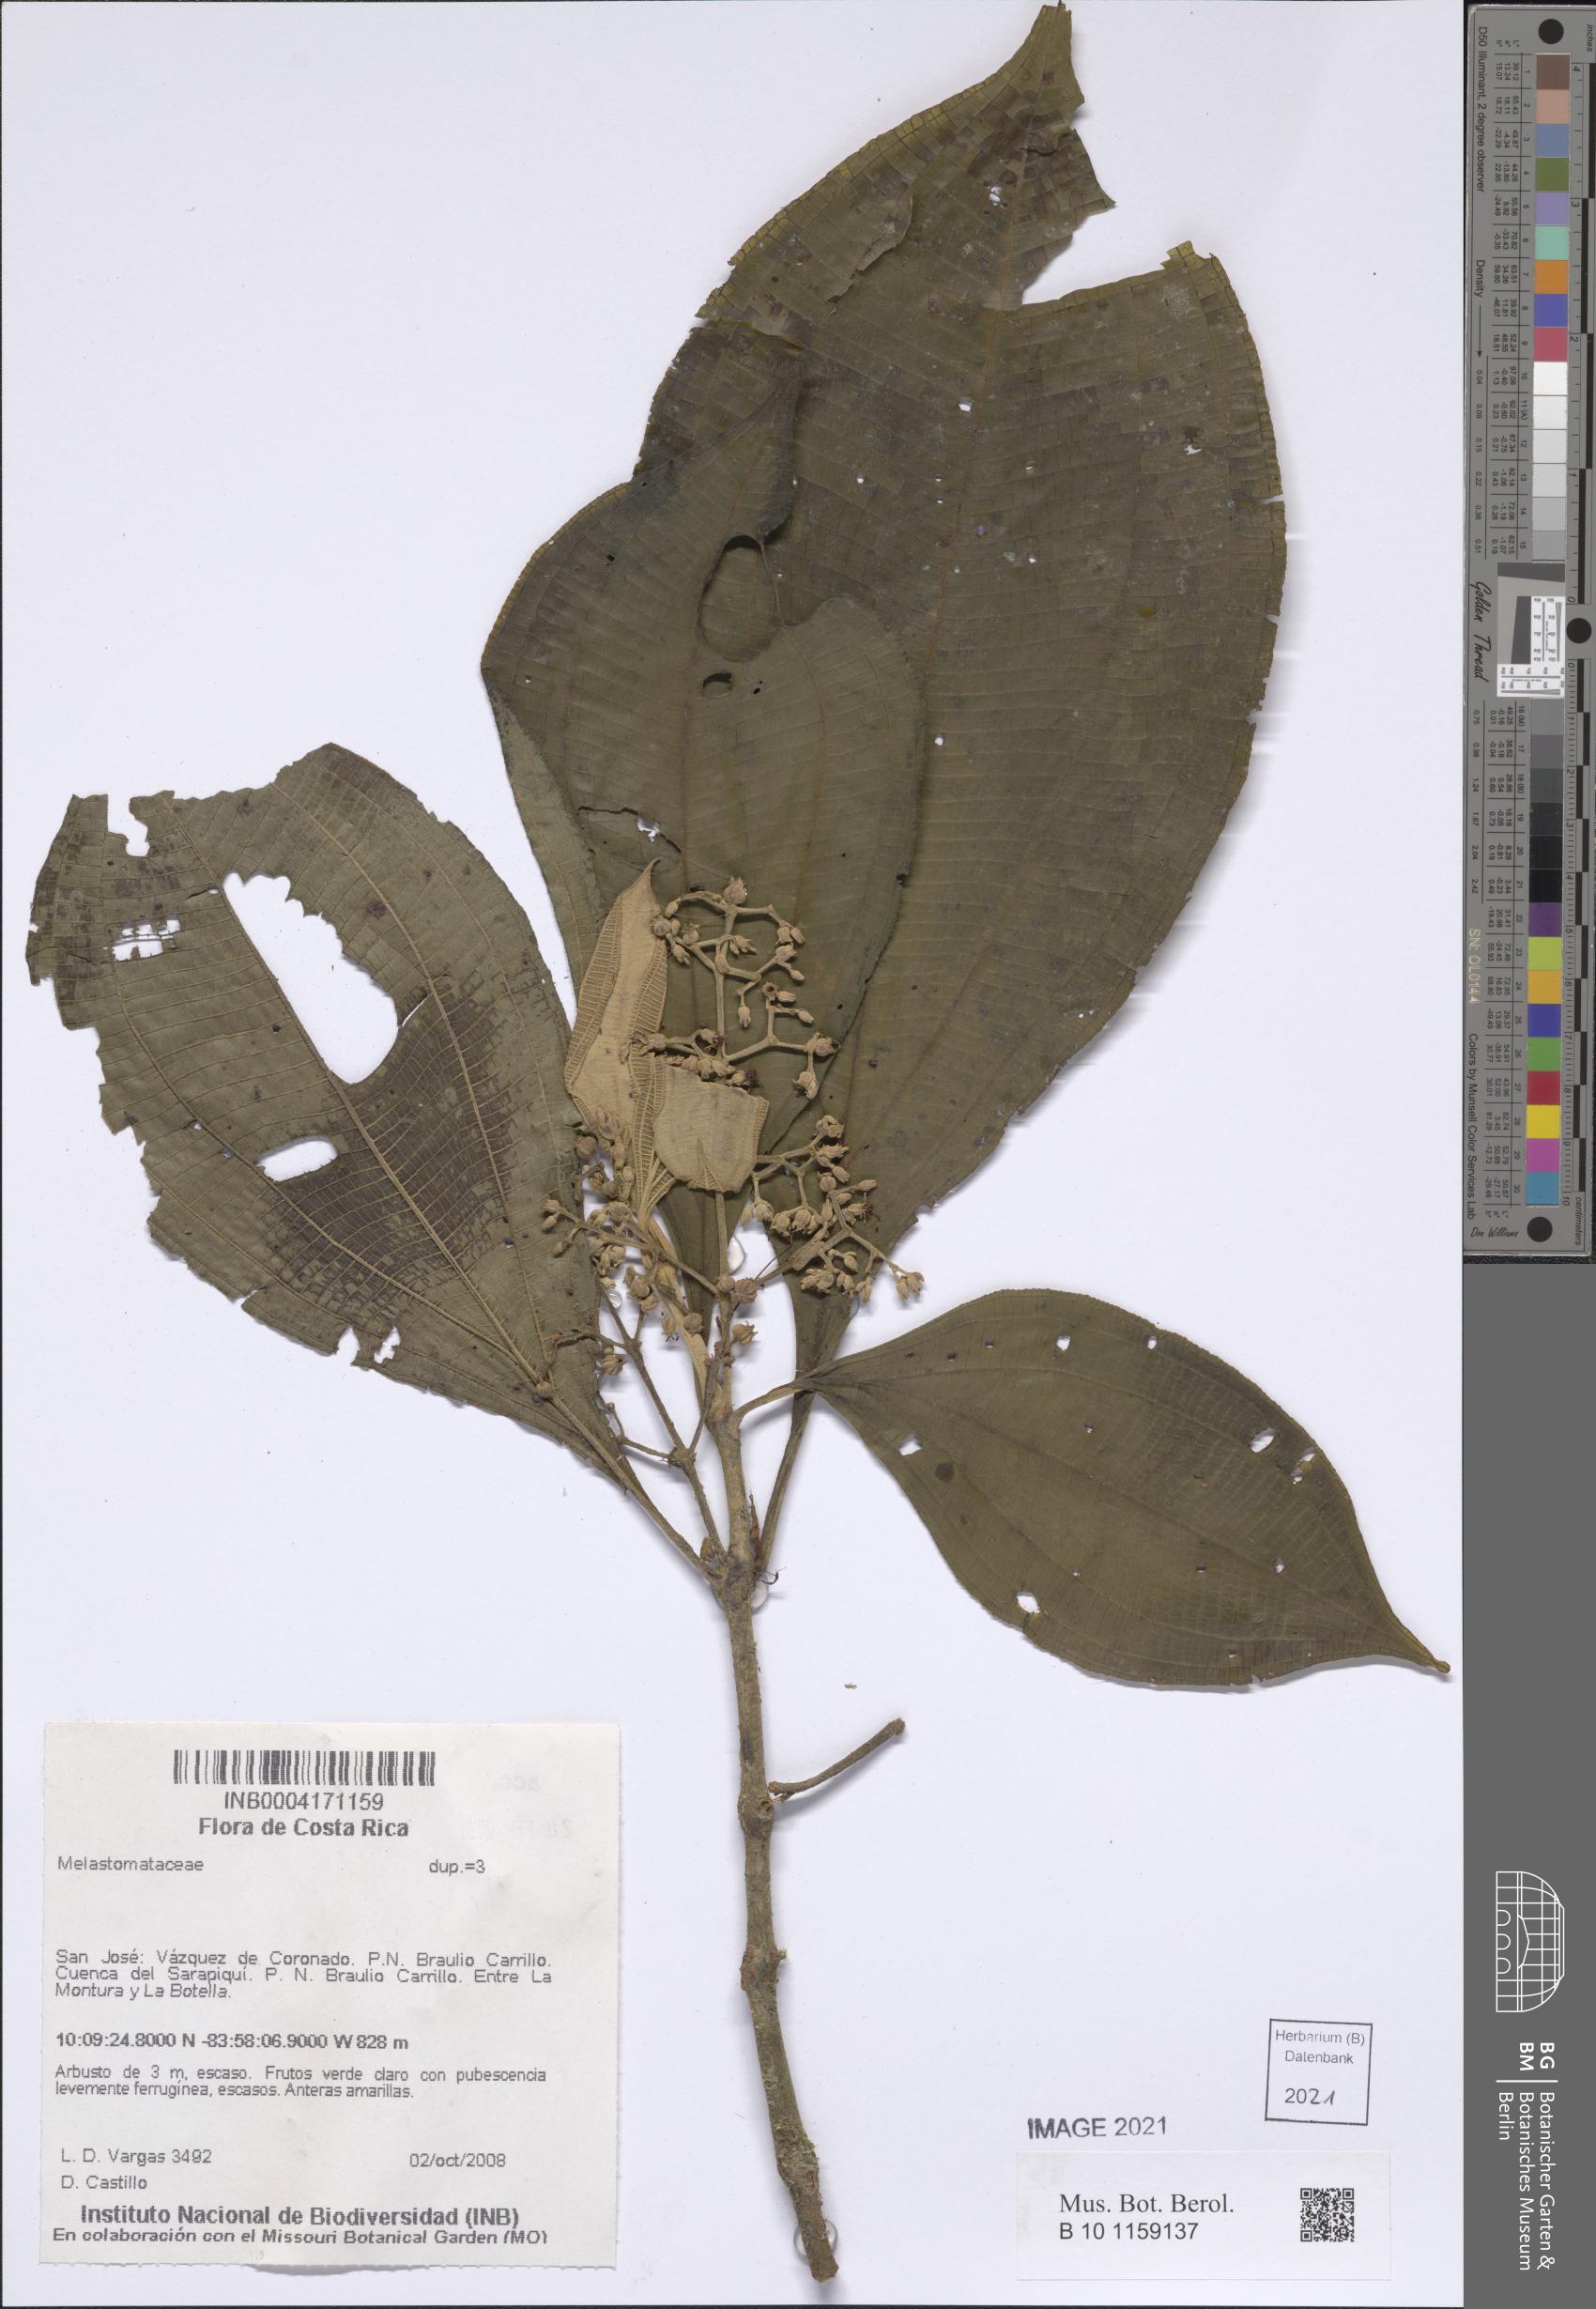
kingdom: Plantae
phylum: Tracheophyta
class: Magnoliopsida
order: Myrtales
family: Melastomataceae
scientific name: Melastomataceae
